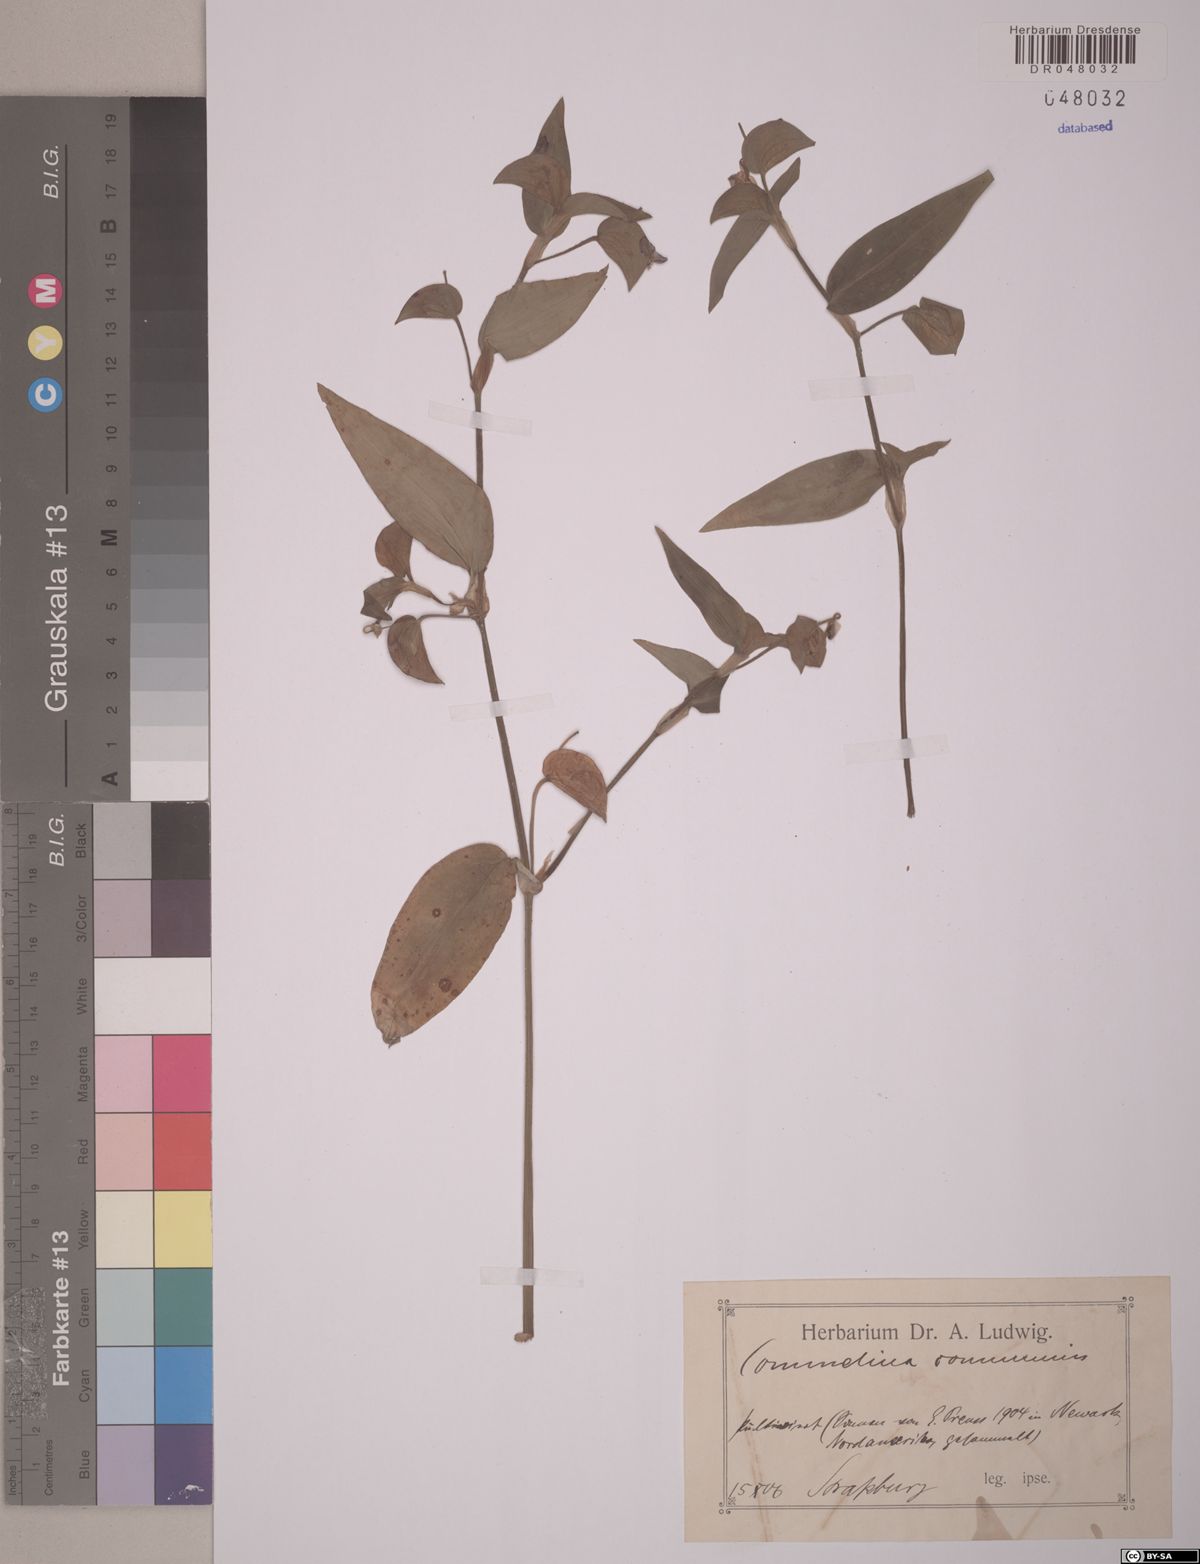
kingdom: Plantae
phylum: Tracheophyta
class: Liliopsida
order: Commelinales
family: Commelinaceae
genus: Commelina
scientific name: Commelina communis
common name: Asiatic dayflower
